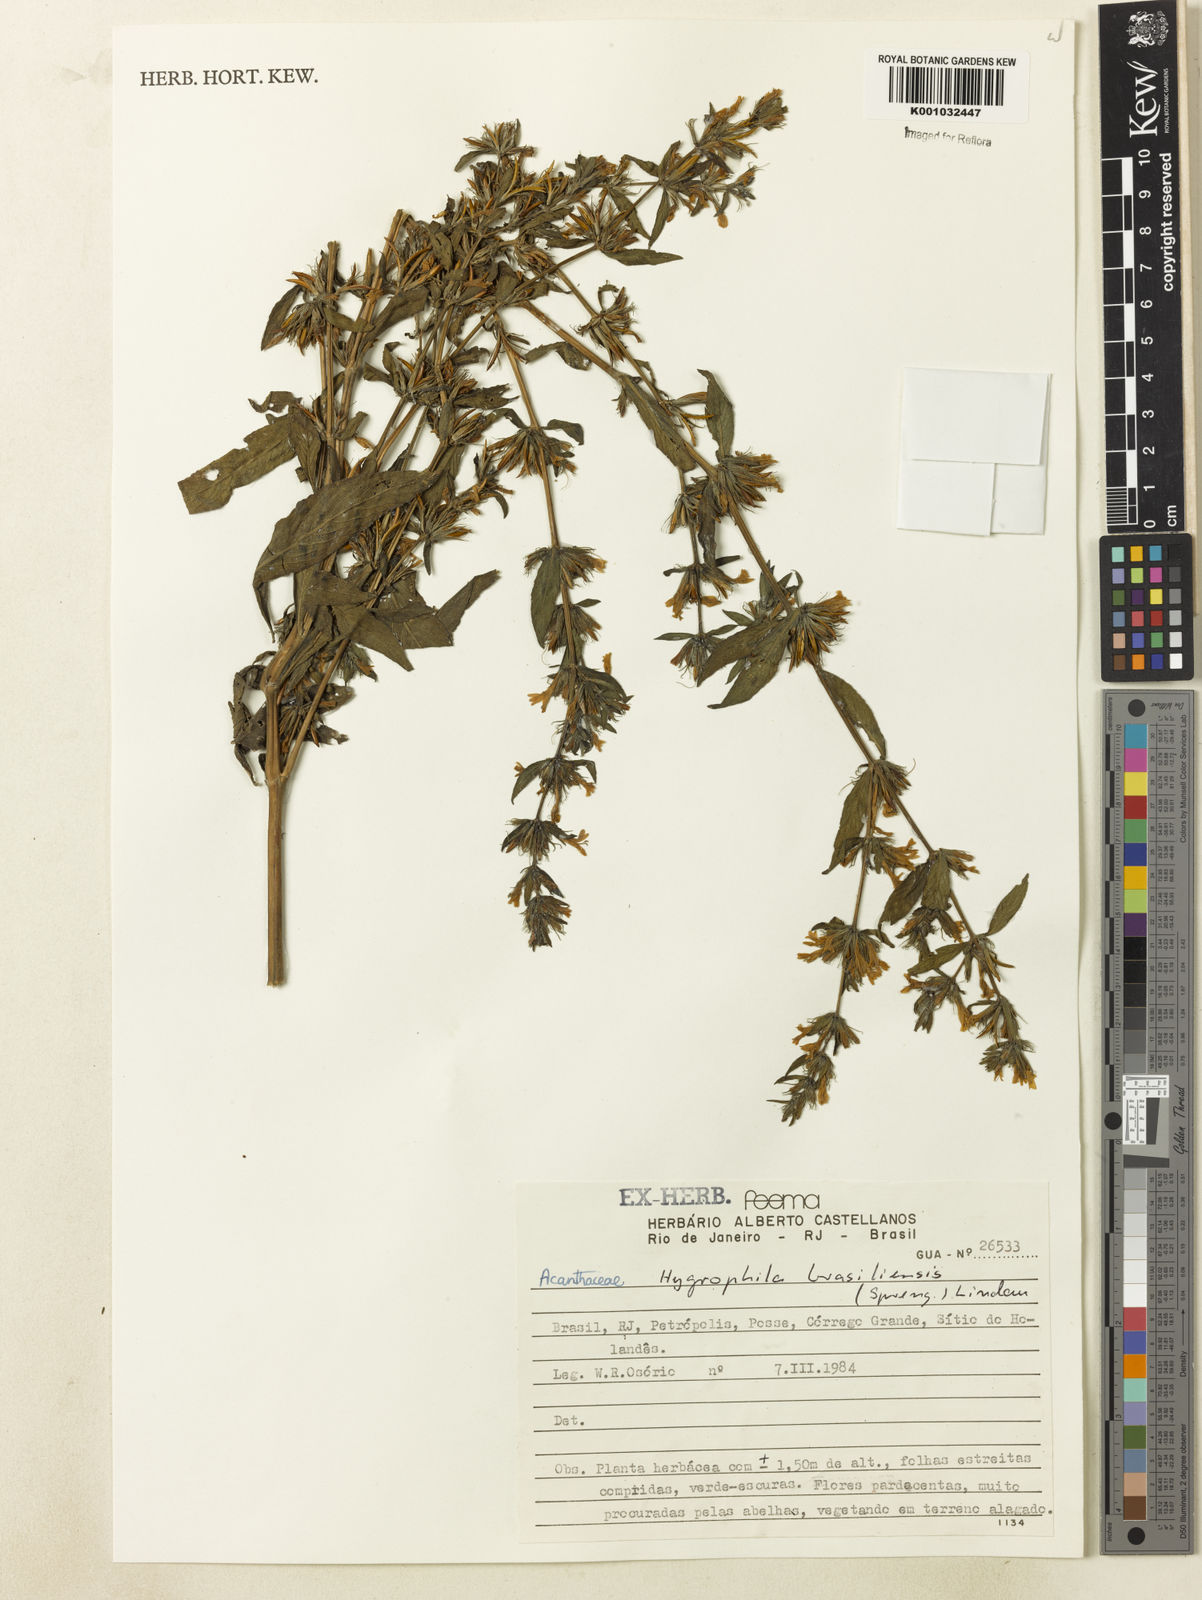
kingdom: Plantae
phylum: Tracheophyta
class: Magnoliopsida
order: Lamiales
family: Acanthaceae
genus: Hygrophila
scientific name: Hygrophila costata
